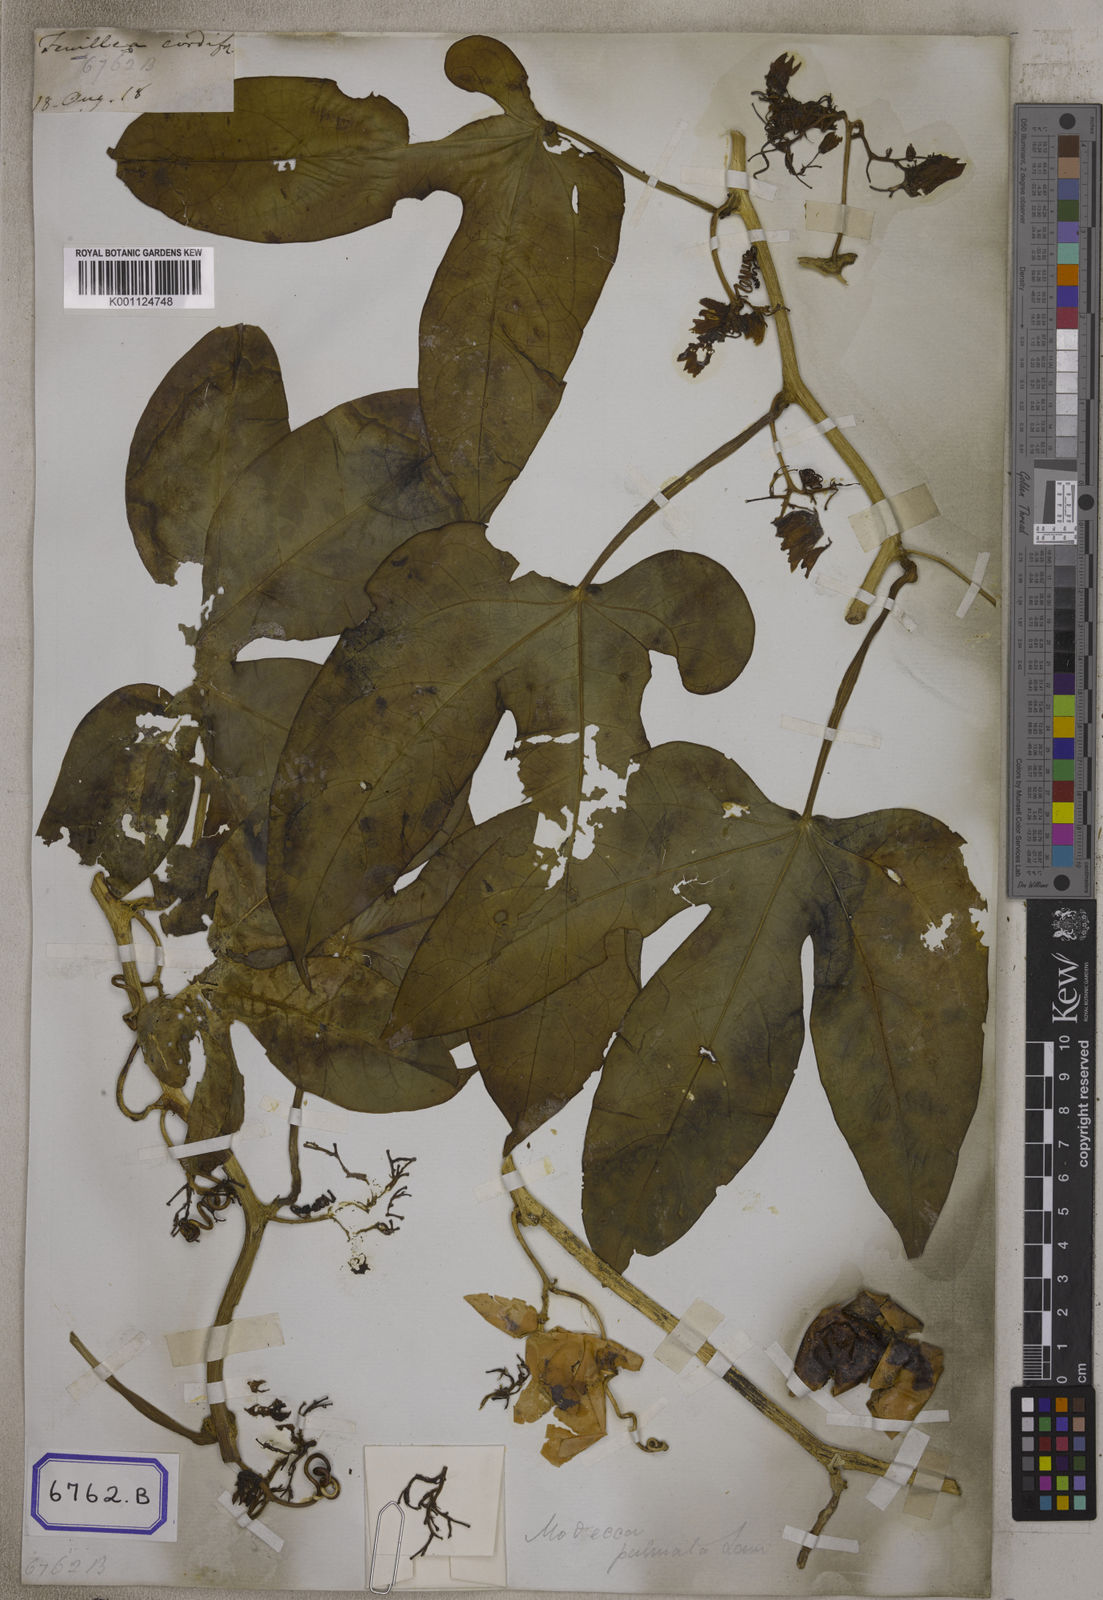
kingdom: Plantae
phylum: Tracheophyta
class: Magnoliopsida
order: Malpighiales
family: Passifloraceae
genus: Adenia
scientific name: Adenia hondala
